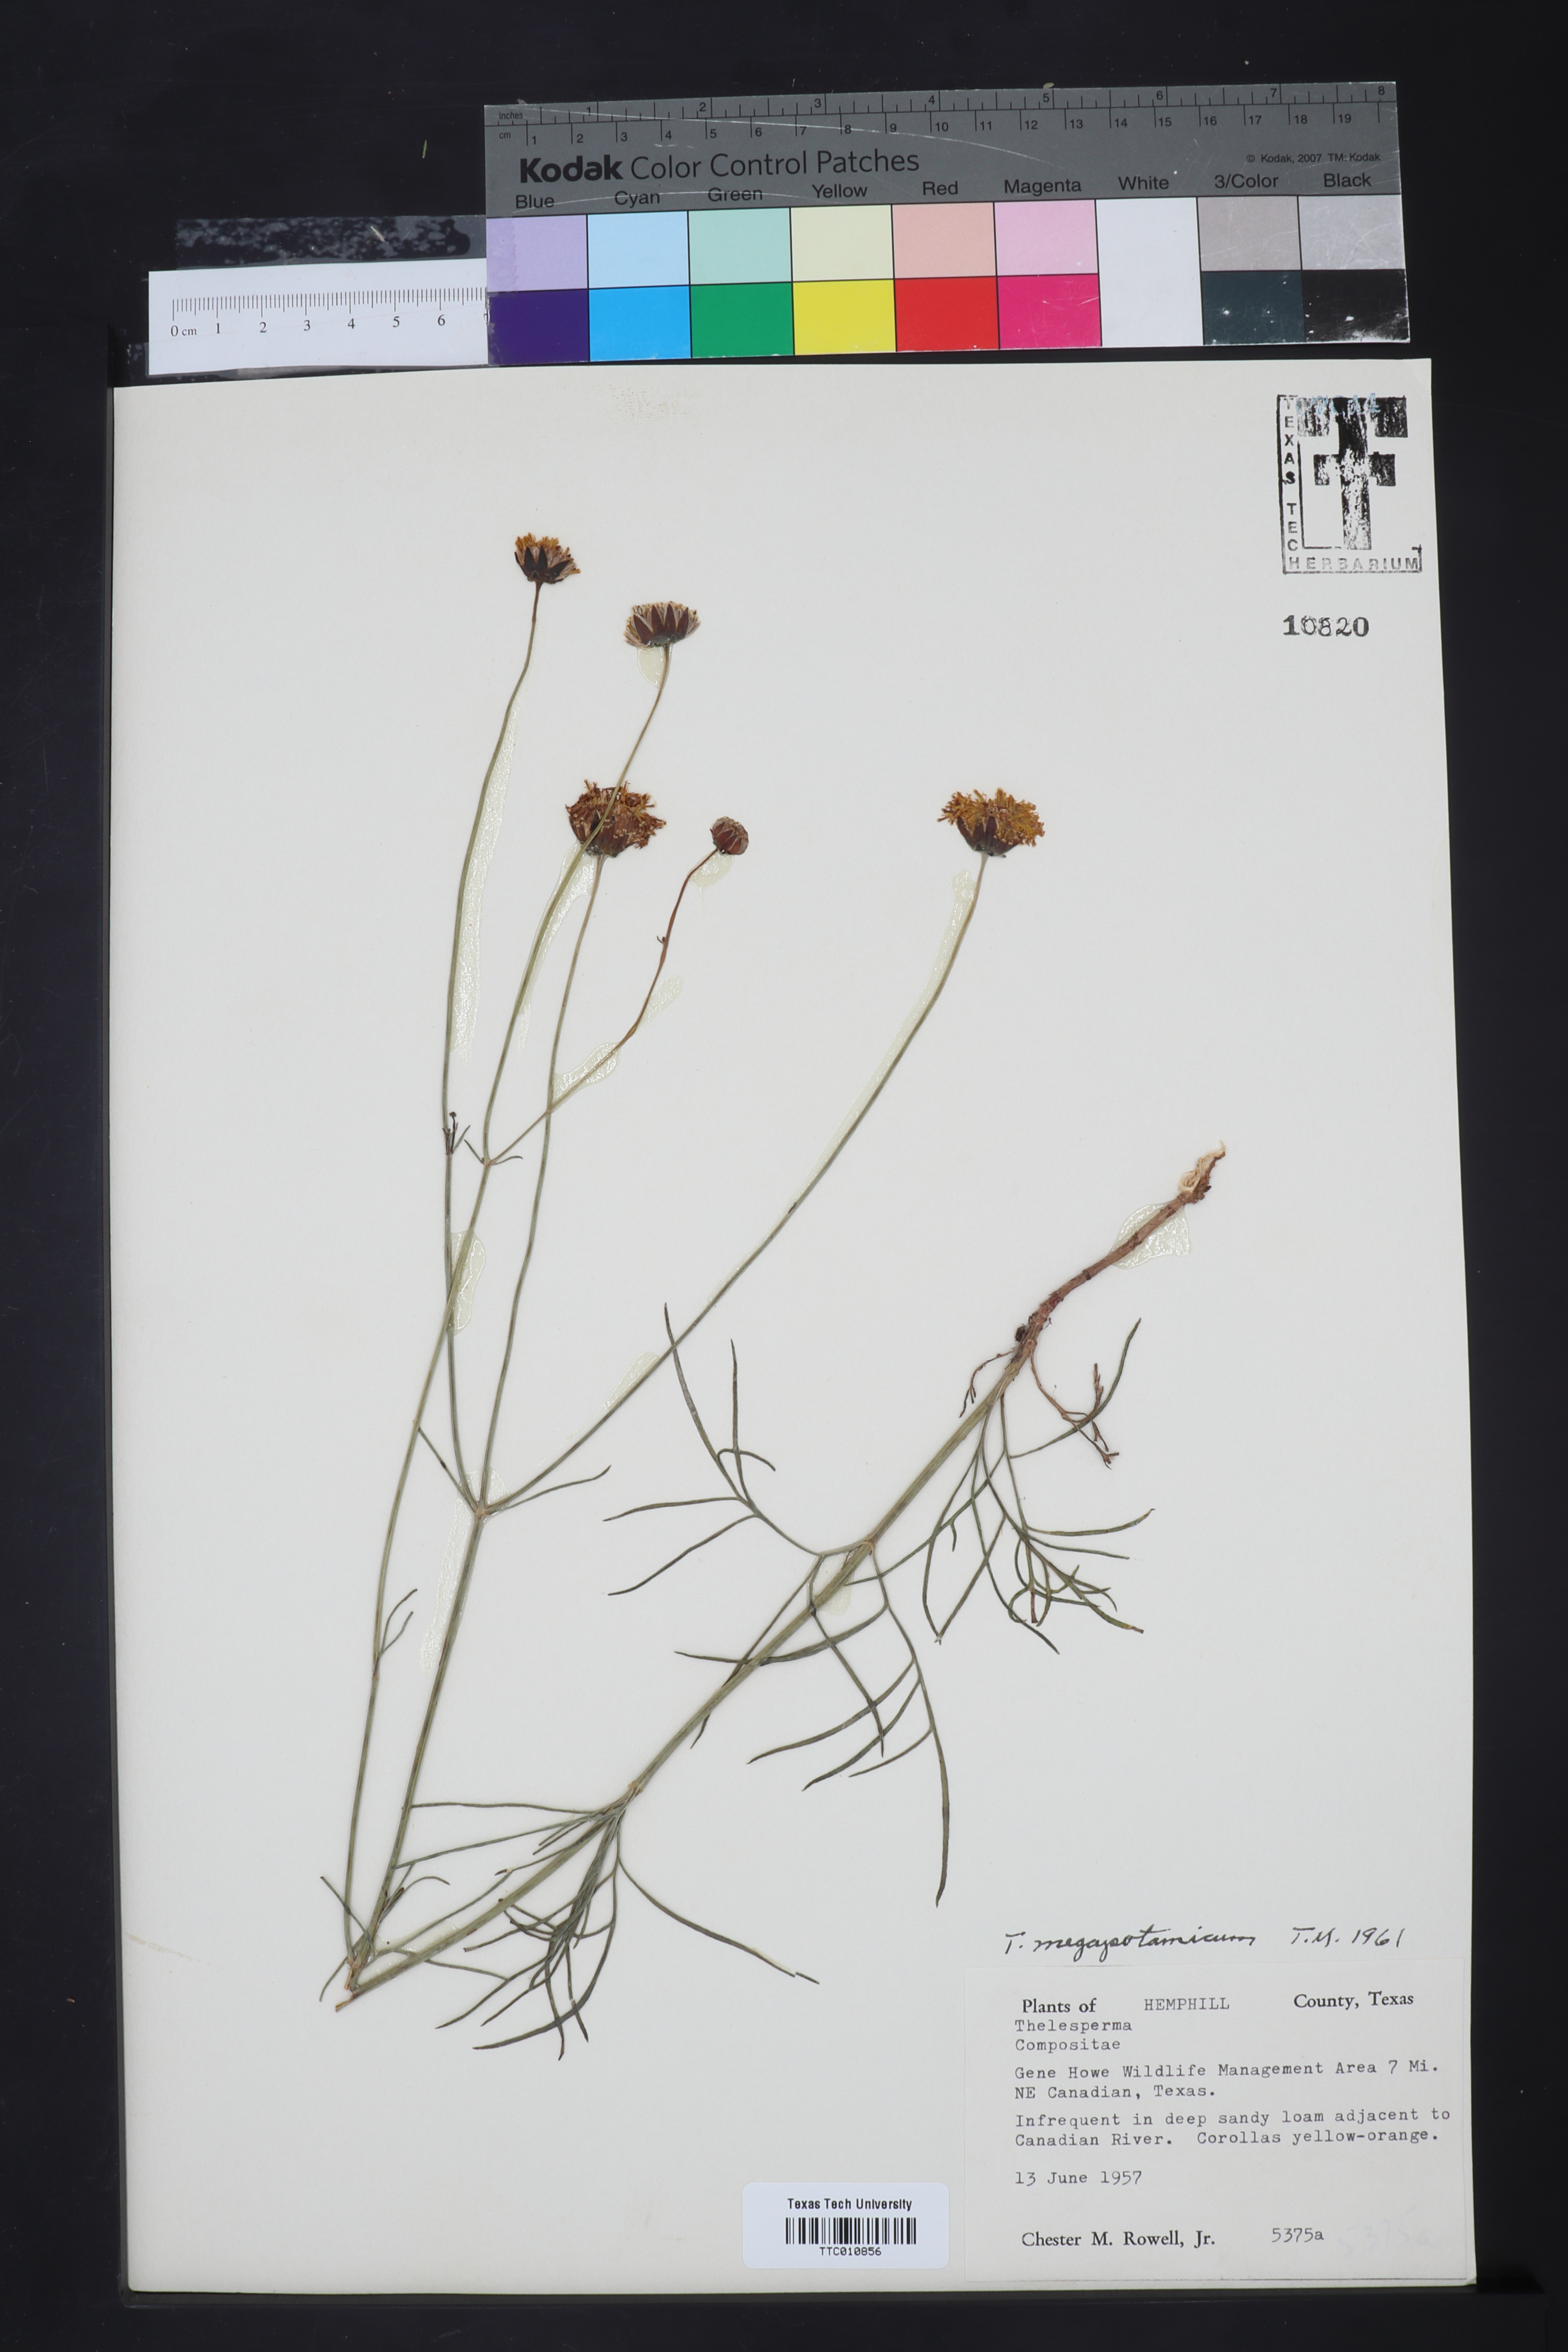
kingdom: Plantae
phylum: Tracheophyta
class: Magnoliopsida
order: Asterales
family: Asteraceae
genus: Thelesperma
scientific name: Thelesperma megapotamicum
